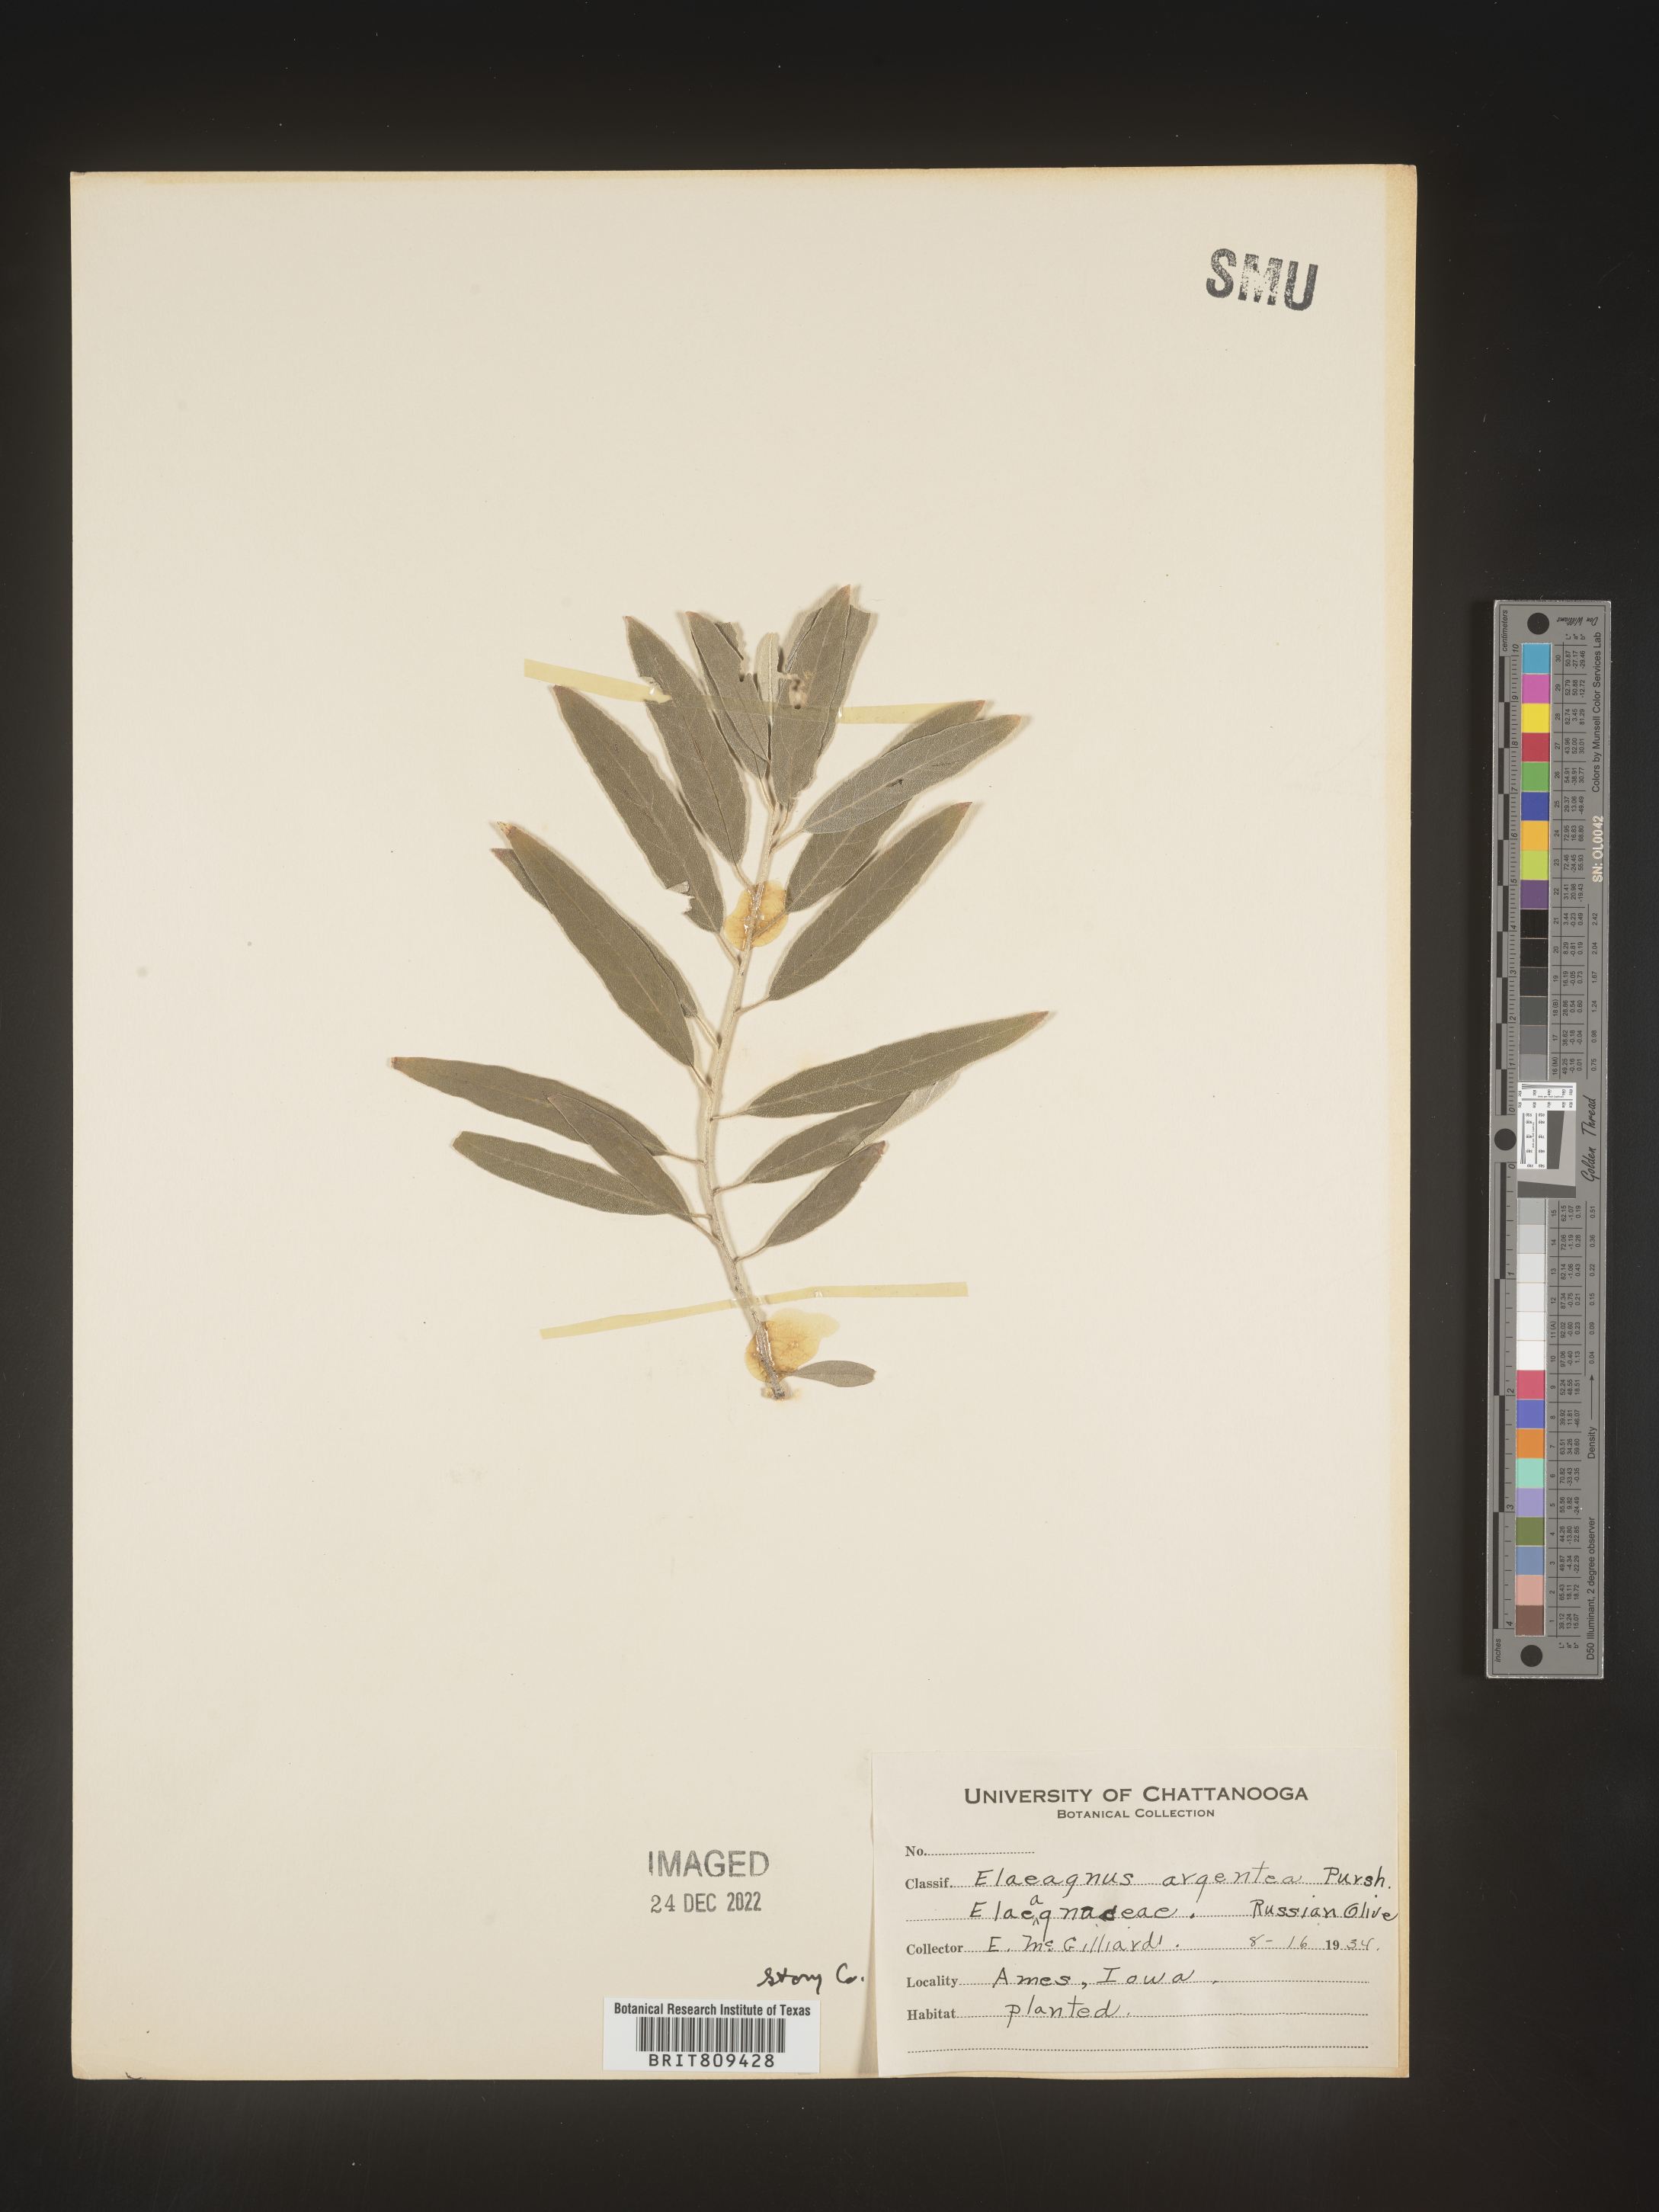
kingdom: Plantae
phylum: Tracheophyta
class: Magnoliopsida
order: Rosales
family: Elaeagnaceae
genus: Elaeagnus
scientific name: Elaeagnus
